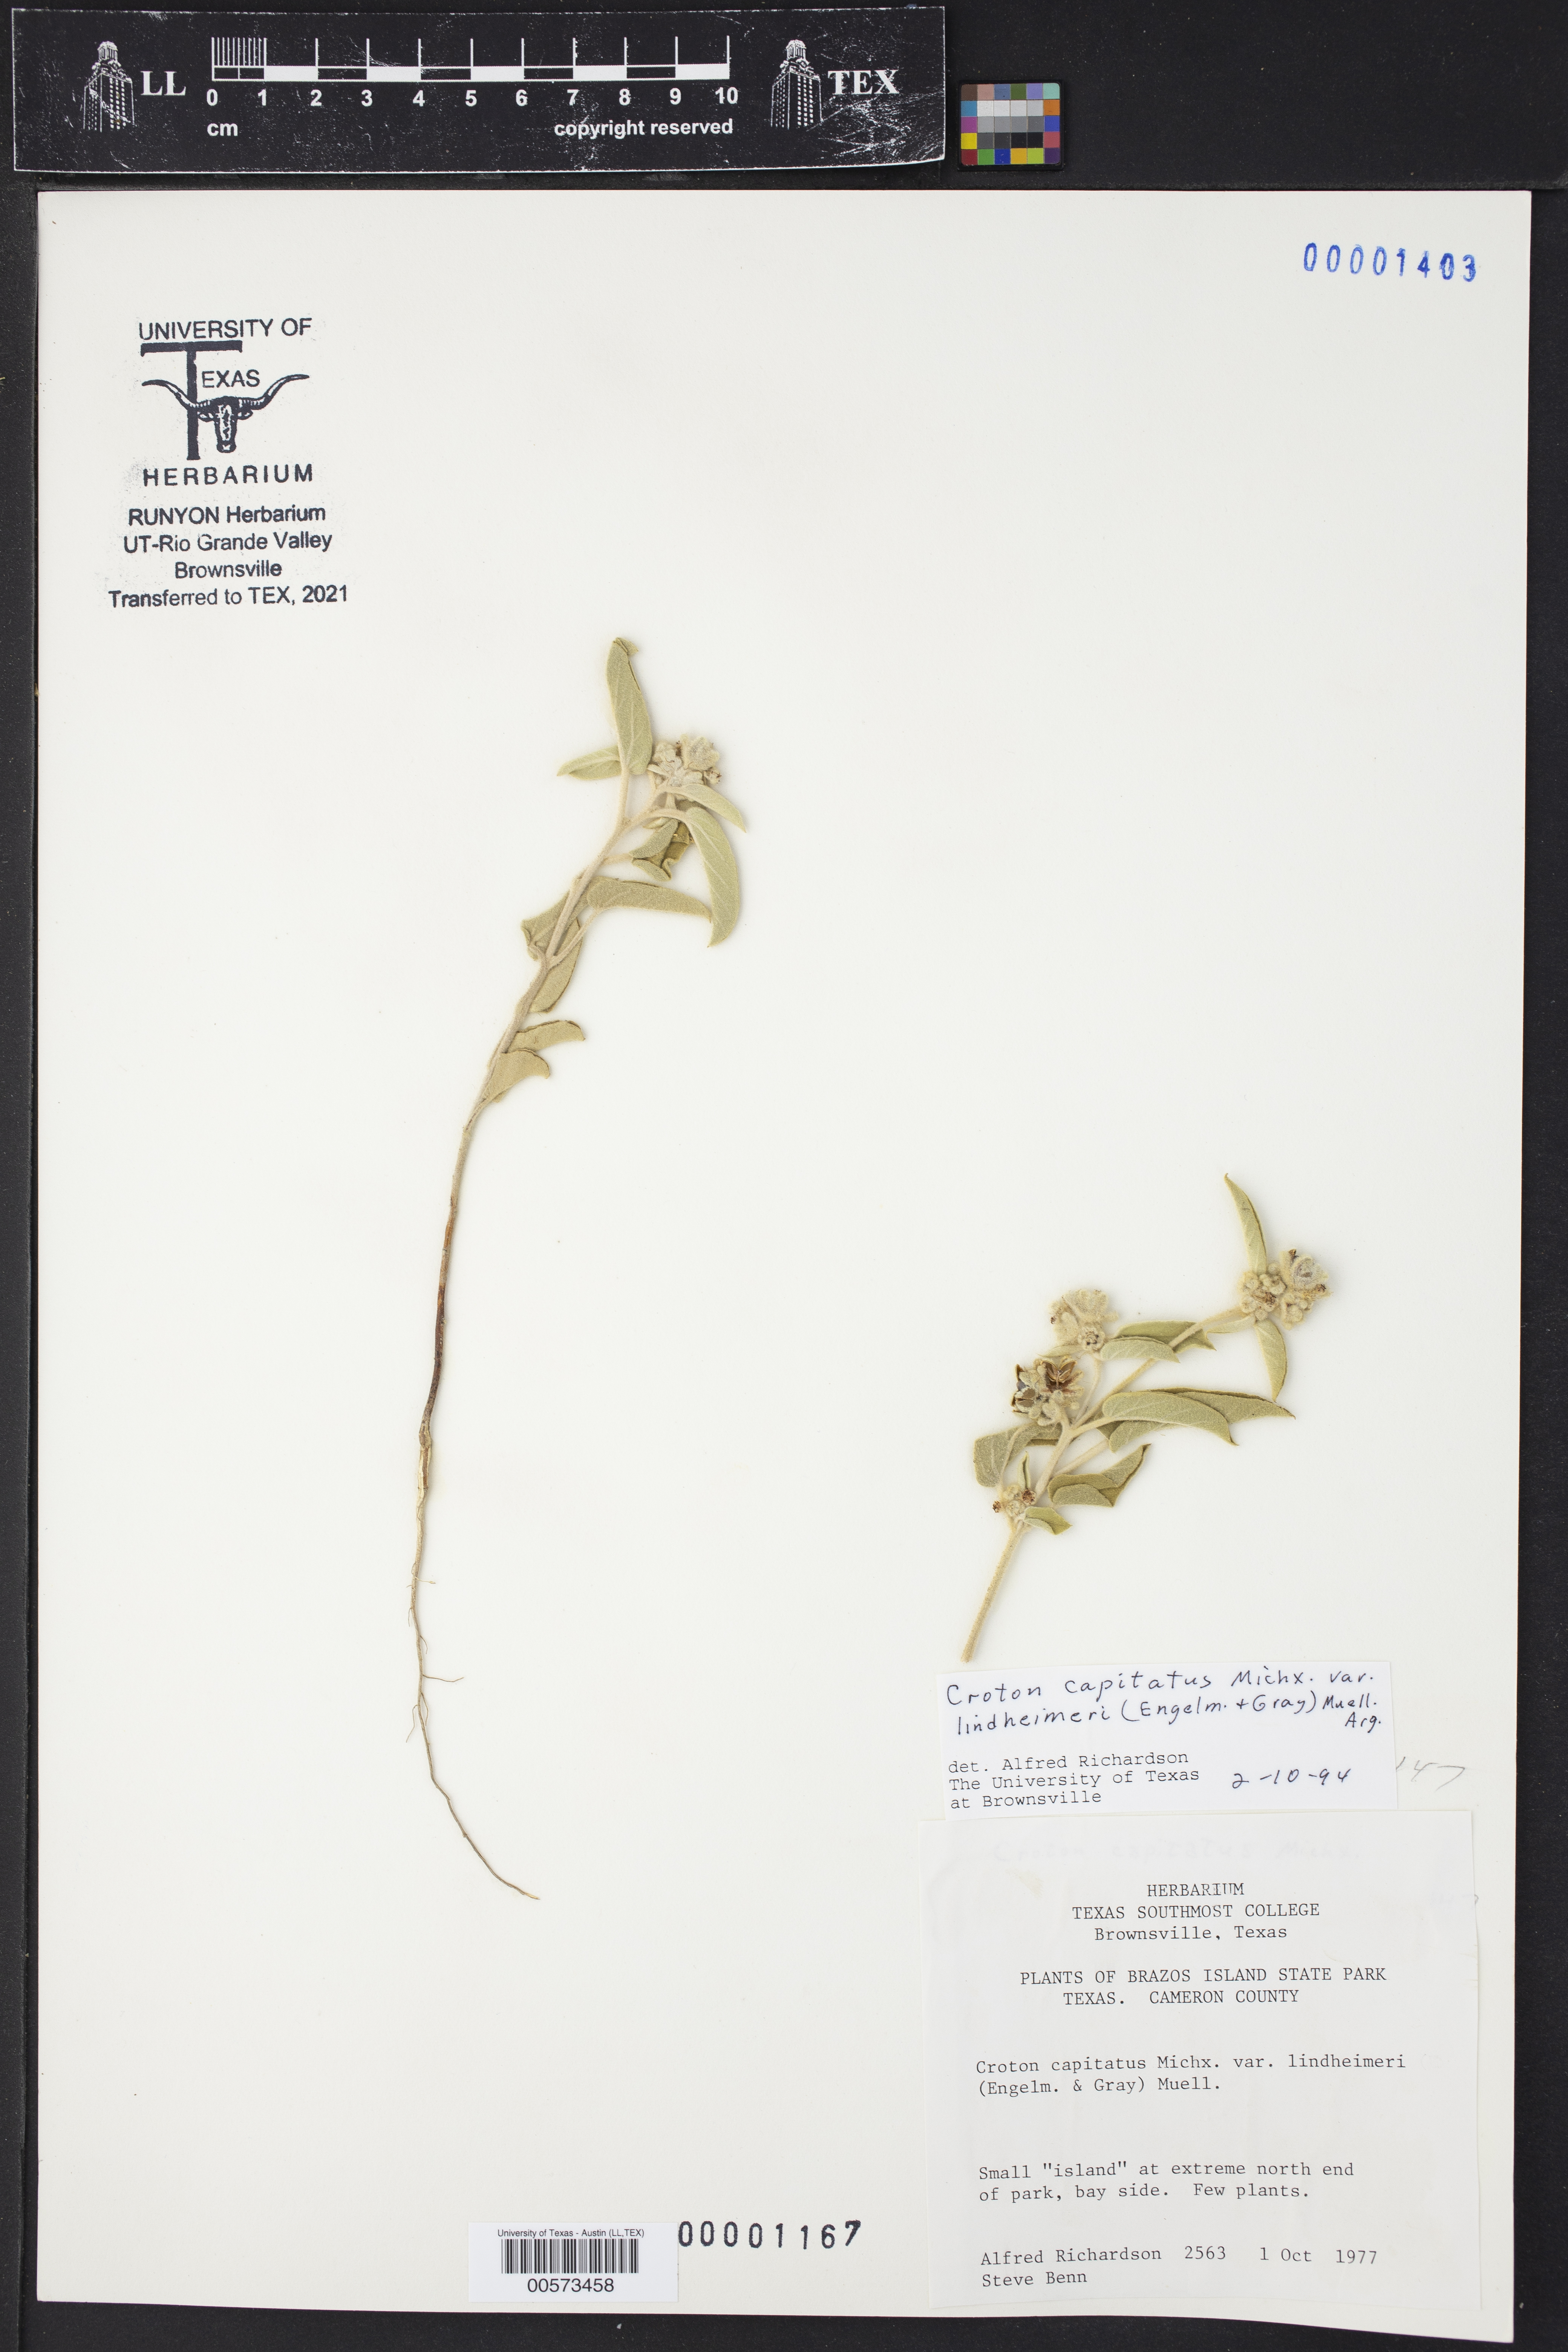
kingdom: Plantae
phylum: Tracheophyta
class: Magnoliopsida
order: Malpighiales
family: Euphorbiaceae
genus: Croton
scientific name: Croton lindheimeri
